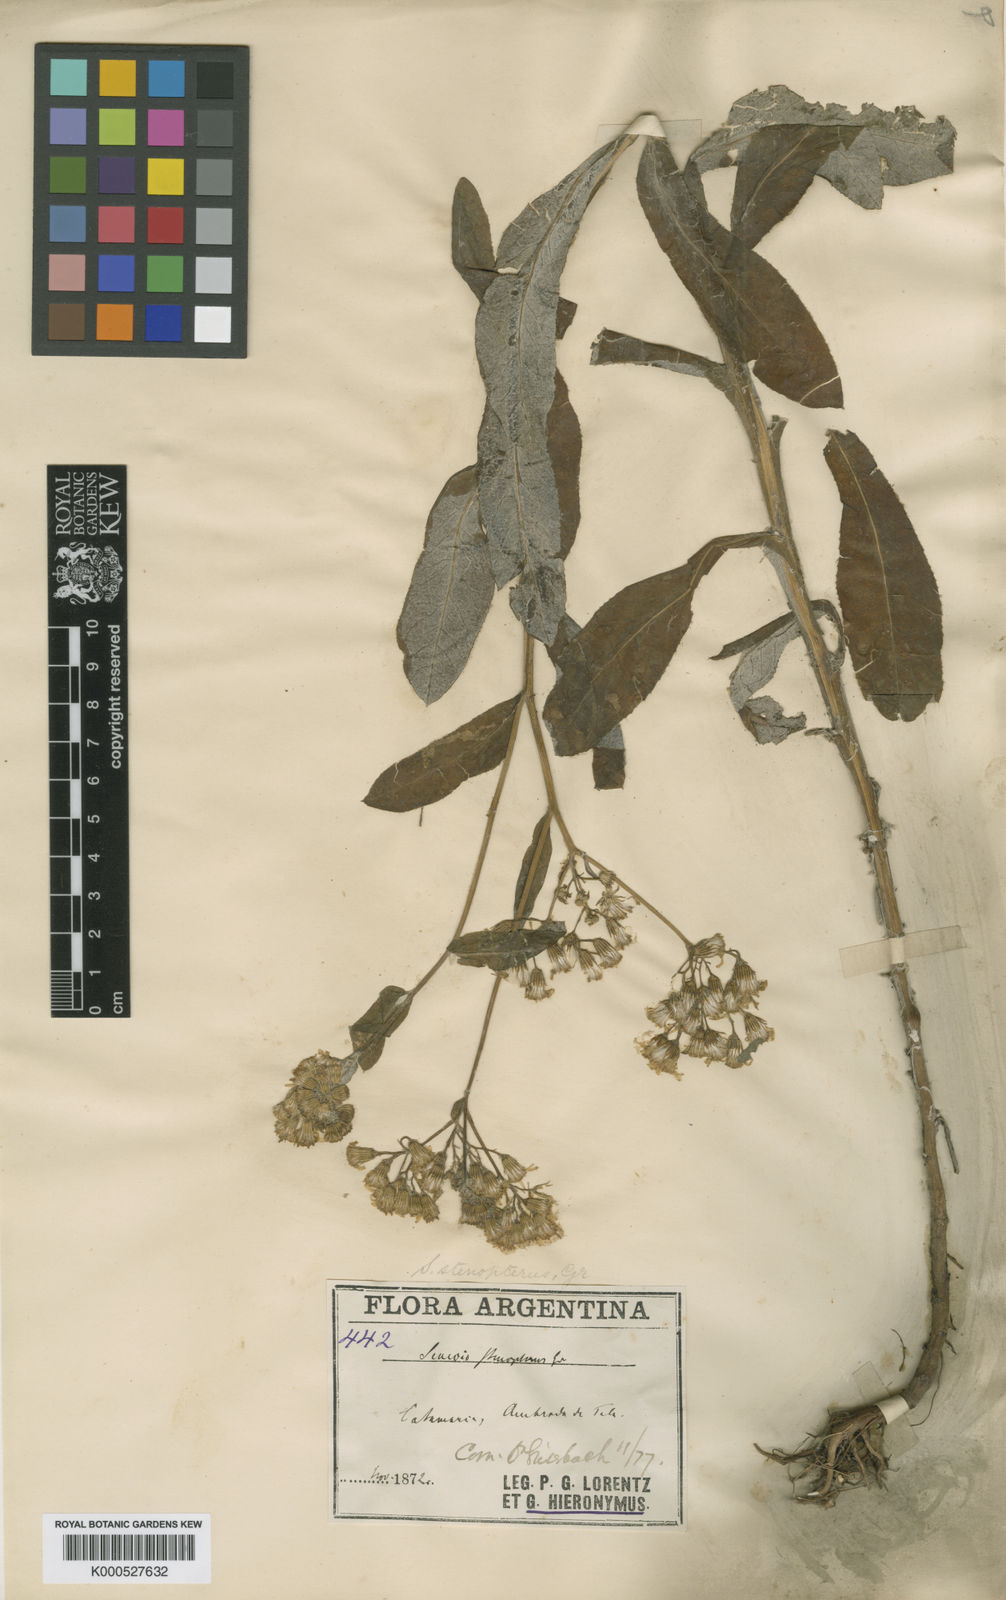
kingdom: Plantae
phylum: Tracheophyta
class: Magnoliopsida
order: Asterales
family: Asteraceae
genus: Senecio
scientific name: Senecio deferens
